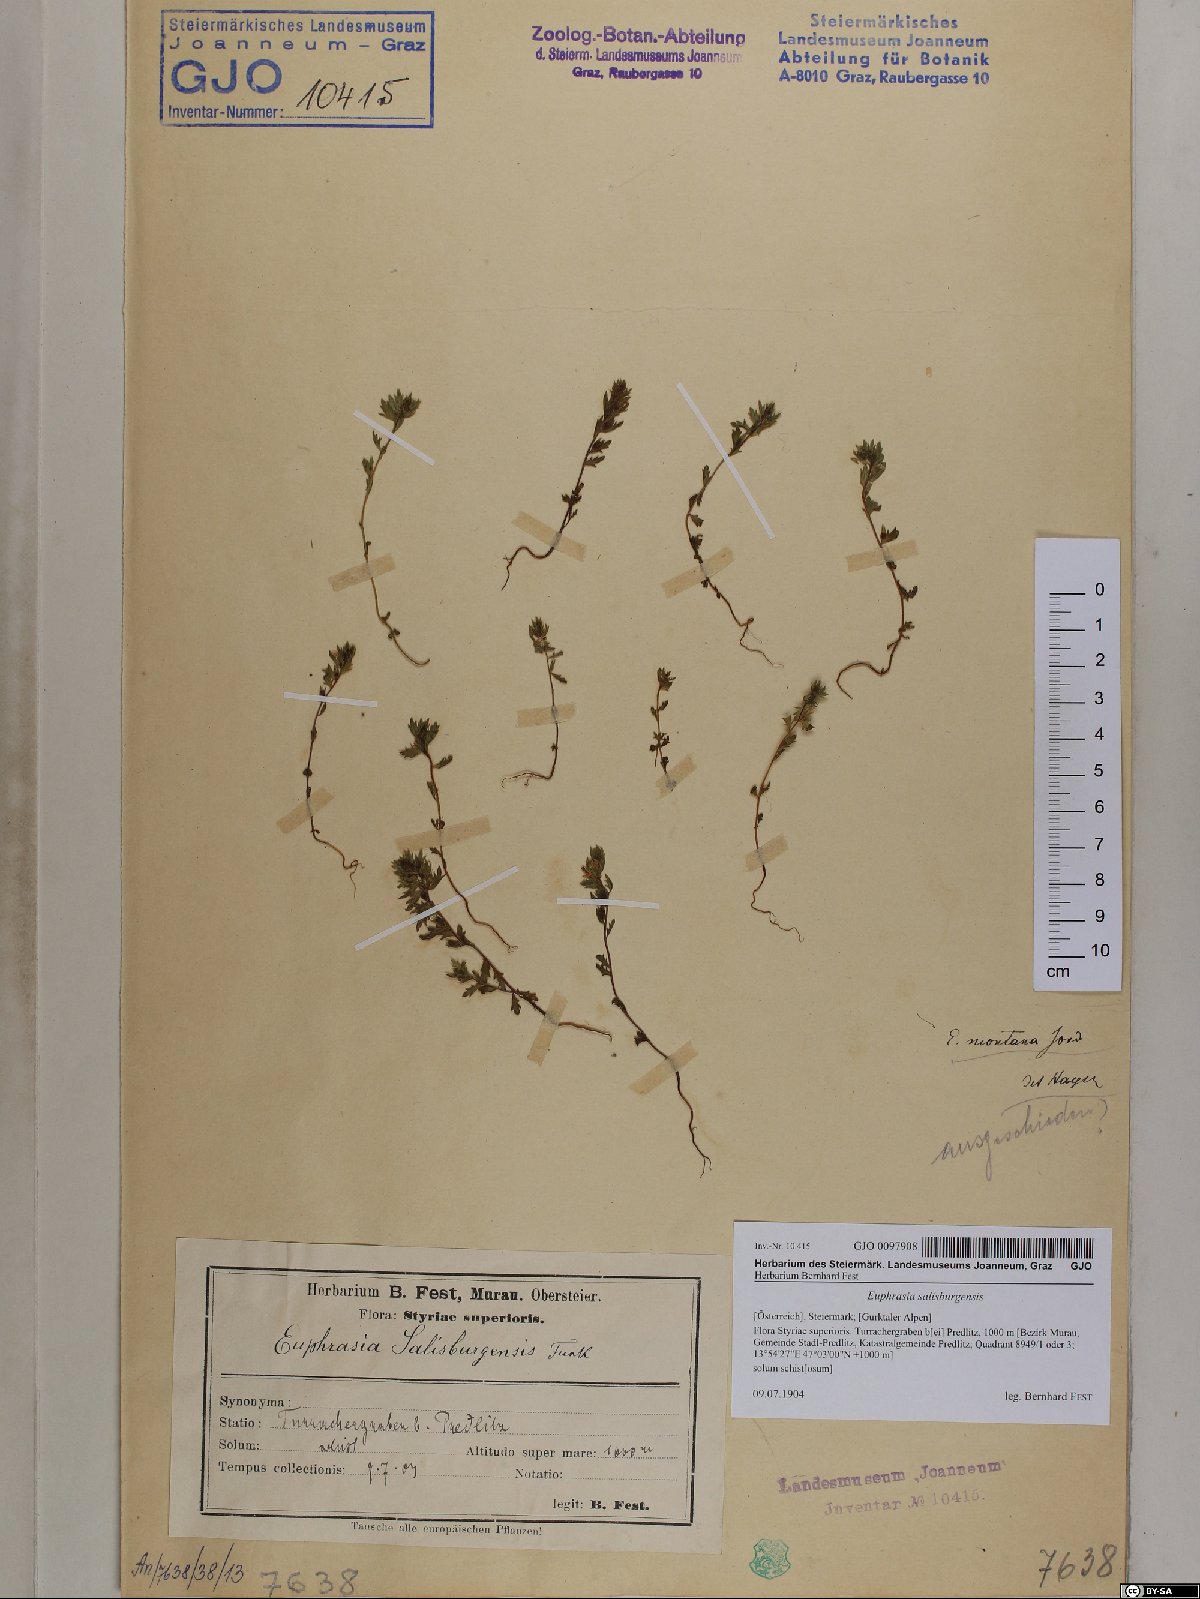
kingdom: Plantae
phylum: Tracheophyta
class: Magnoliopsida
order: Lamiales
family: Orobanchaceae
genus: Euphrasia
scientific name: Euphrasia salisburgensis
